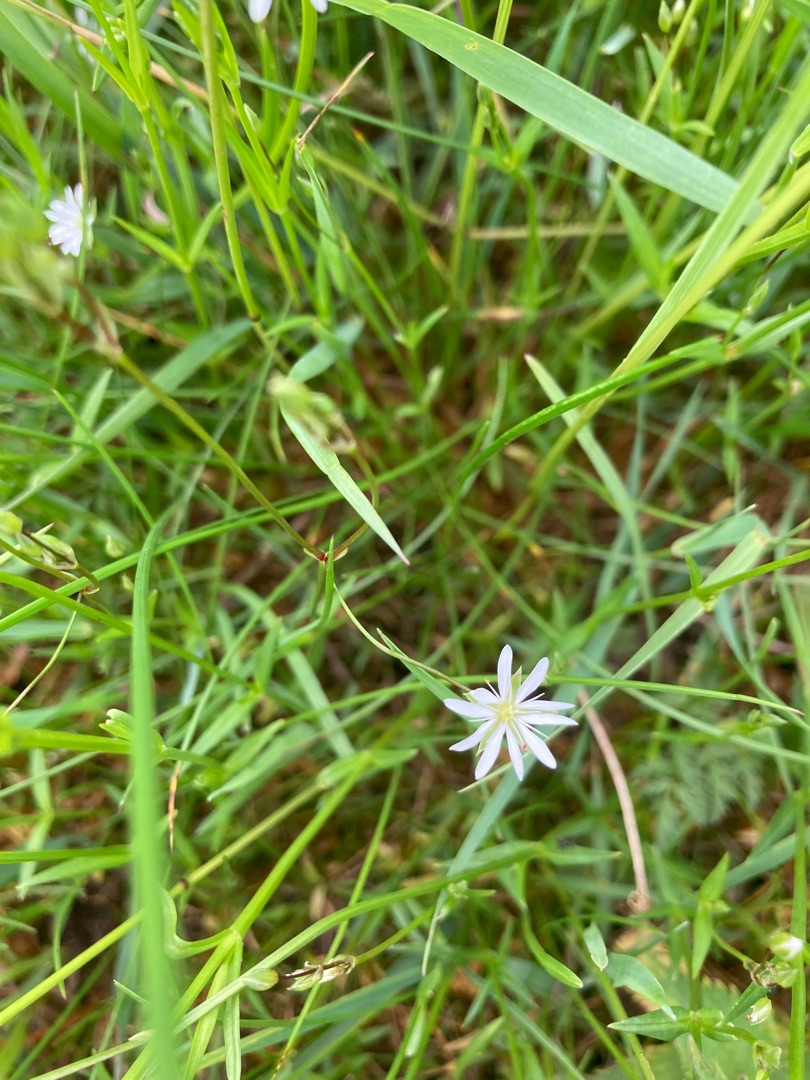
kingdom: Plantae
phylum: Tracheophyta
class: Magnoliopsida
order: Caryophyllales
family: Caryophyllaceae
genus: Stellaria
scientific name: Stellaria graminea
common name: Græsbladet fladstjerne
